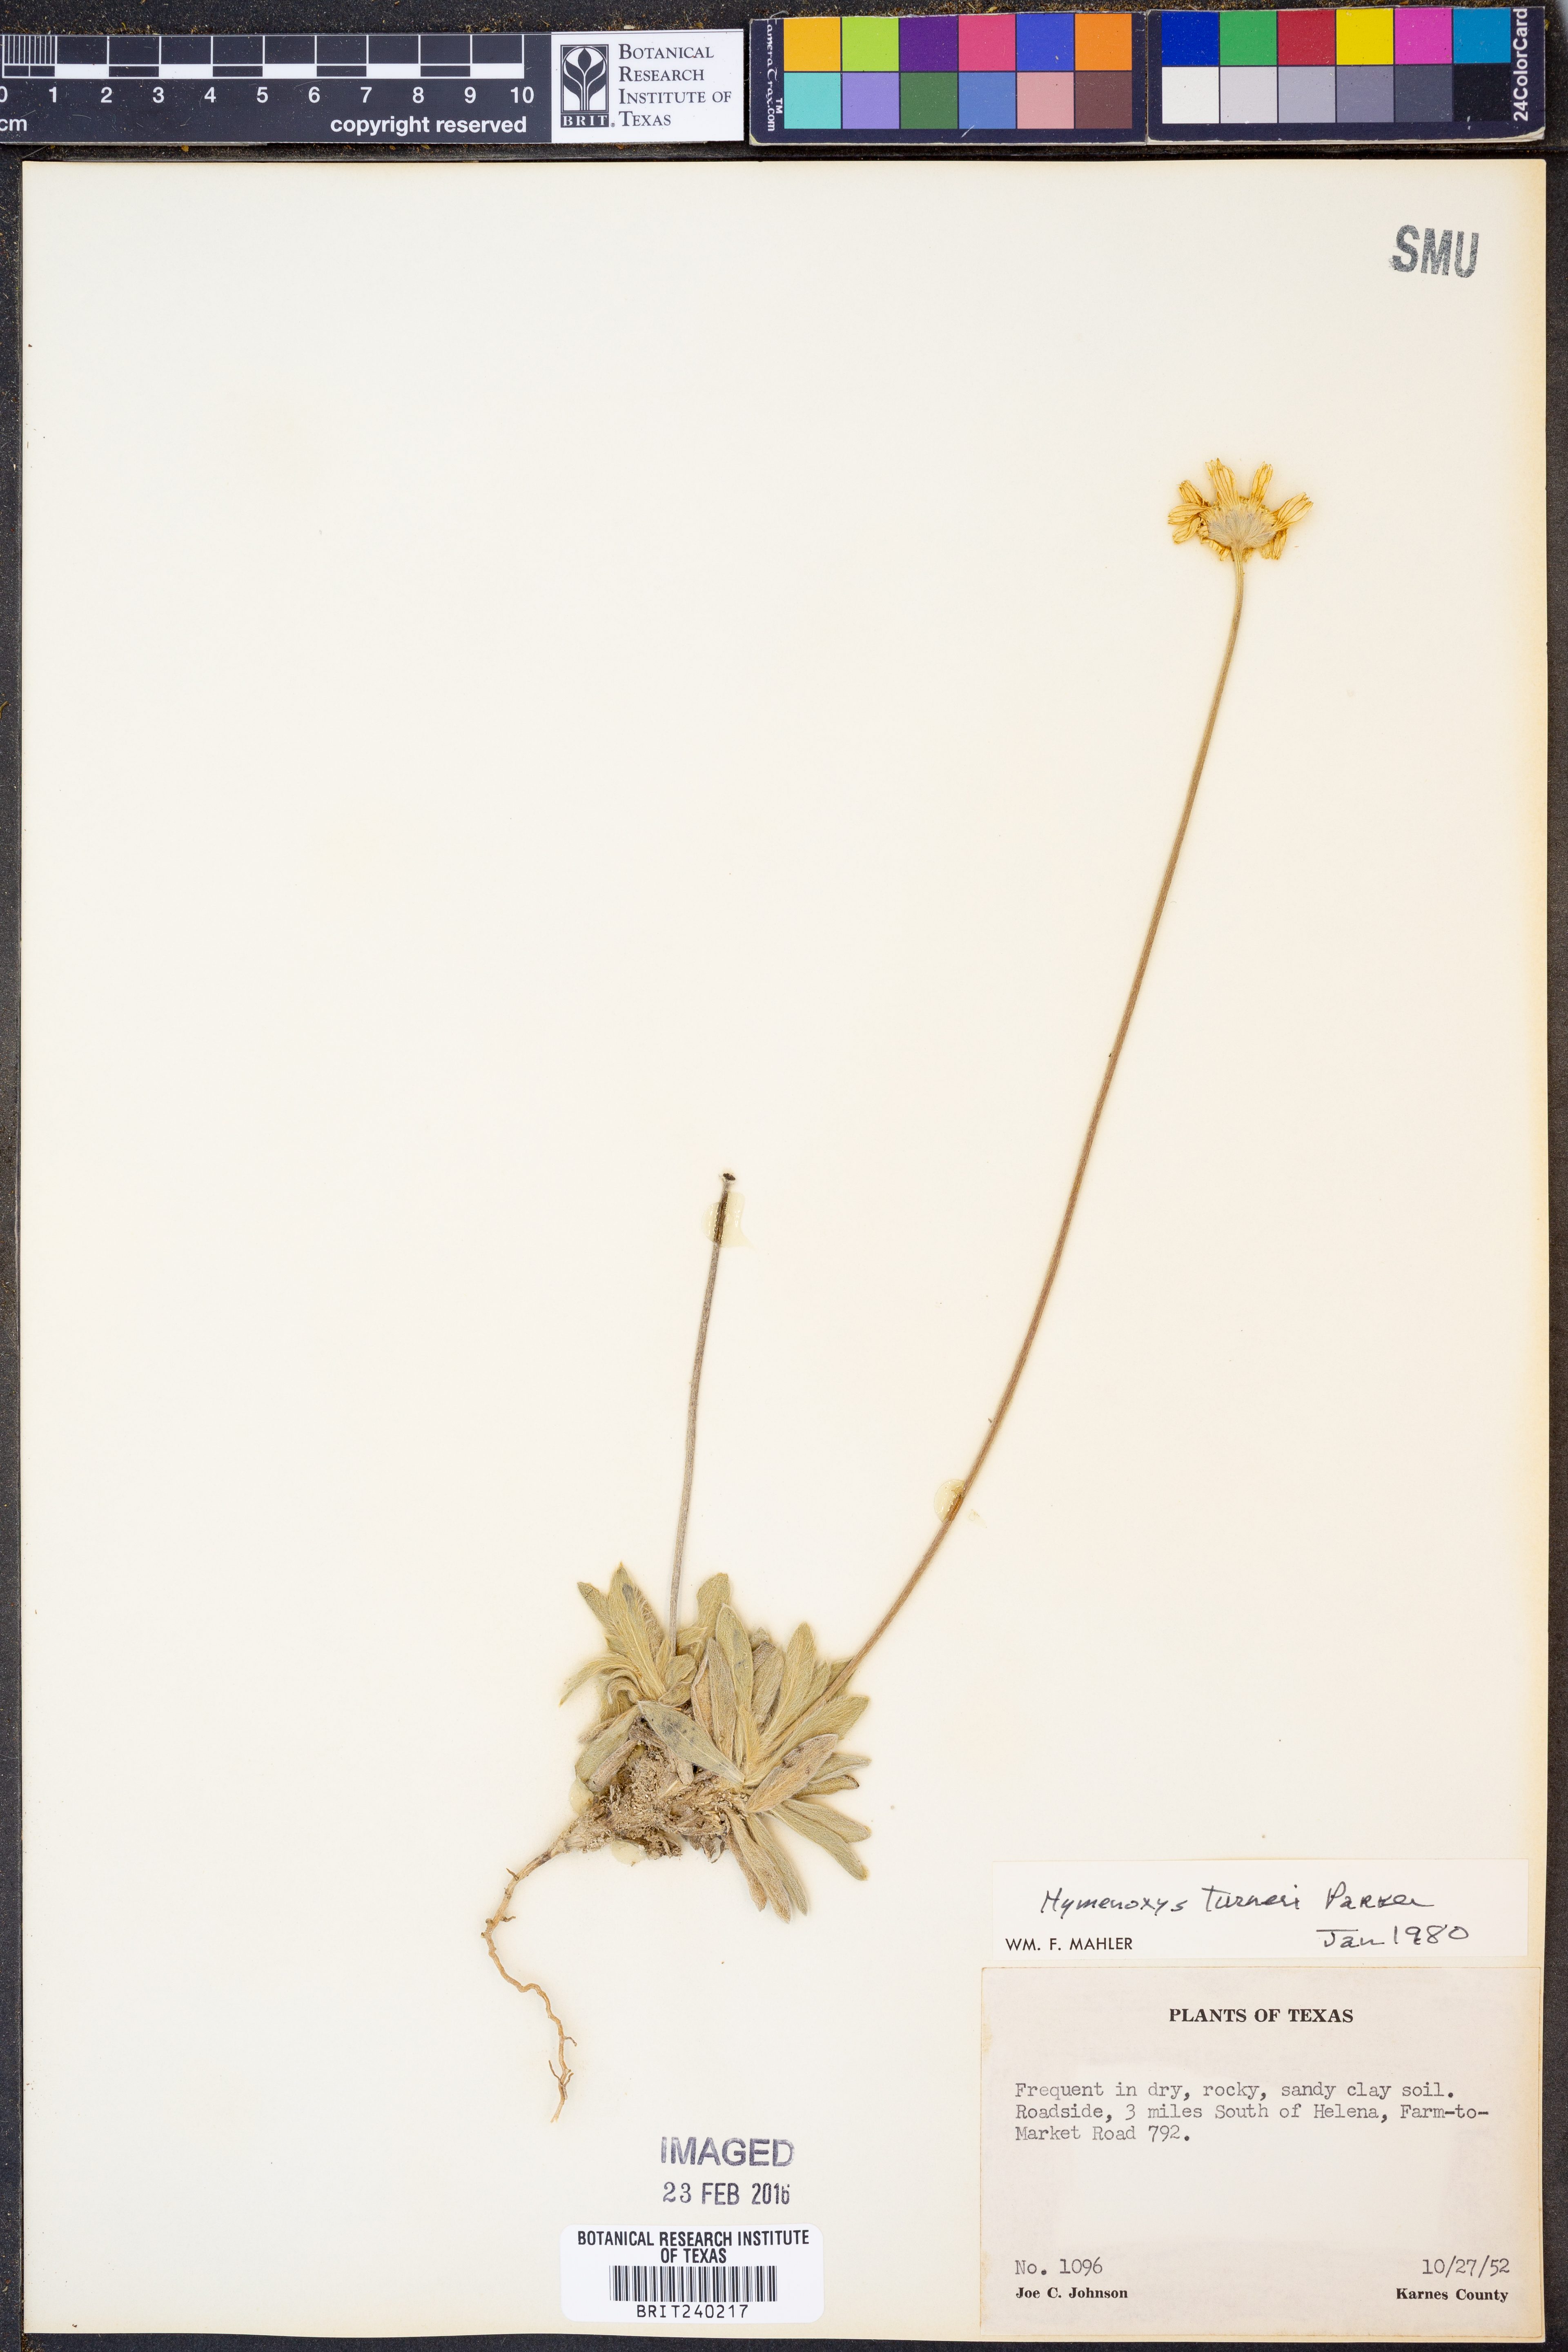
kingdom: Plantae
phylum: Tracheophyta
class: Magnoliopsida
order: Asterales
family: Asteraceae
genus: Tetraneuris
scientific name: Tetraneuris turneri
